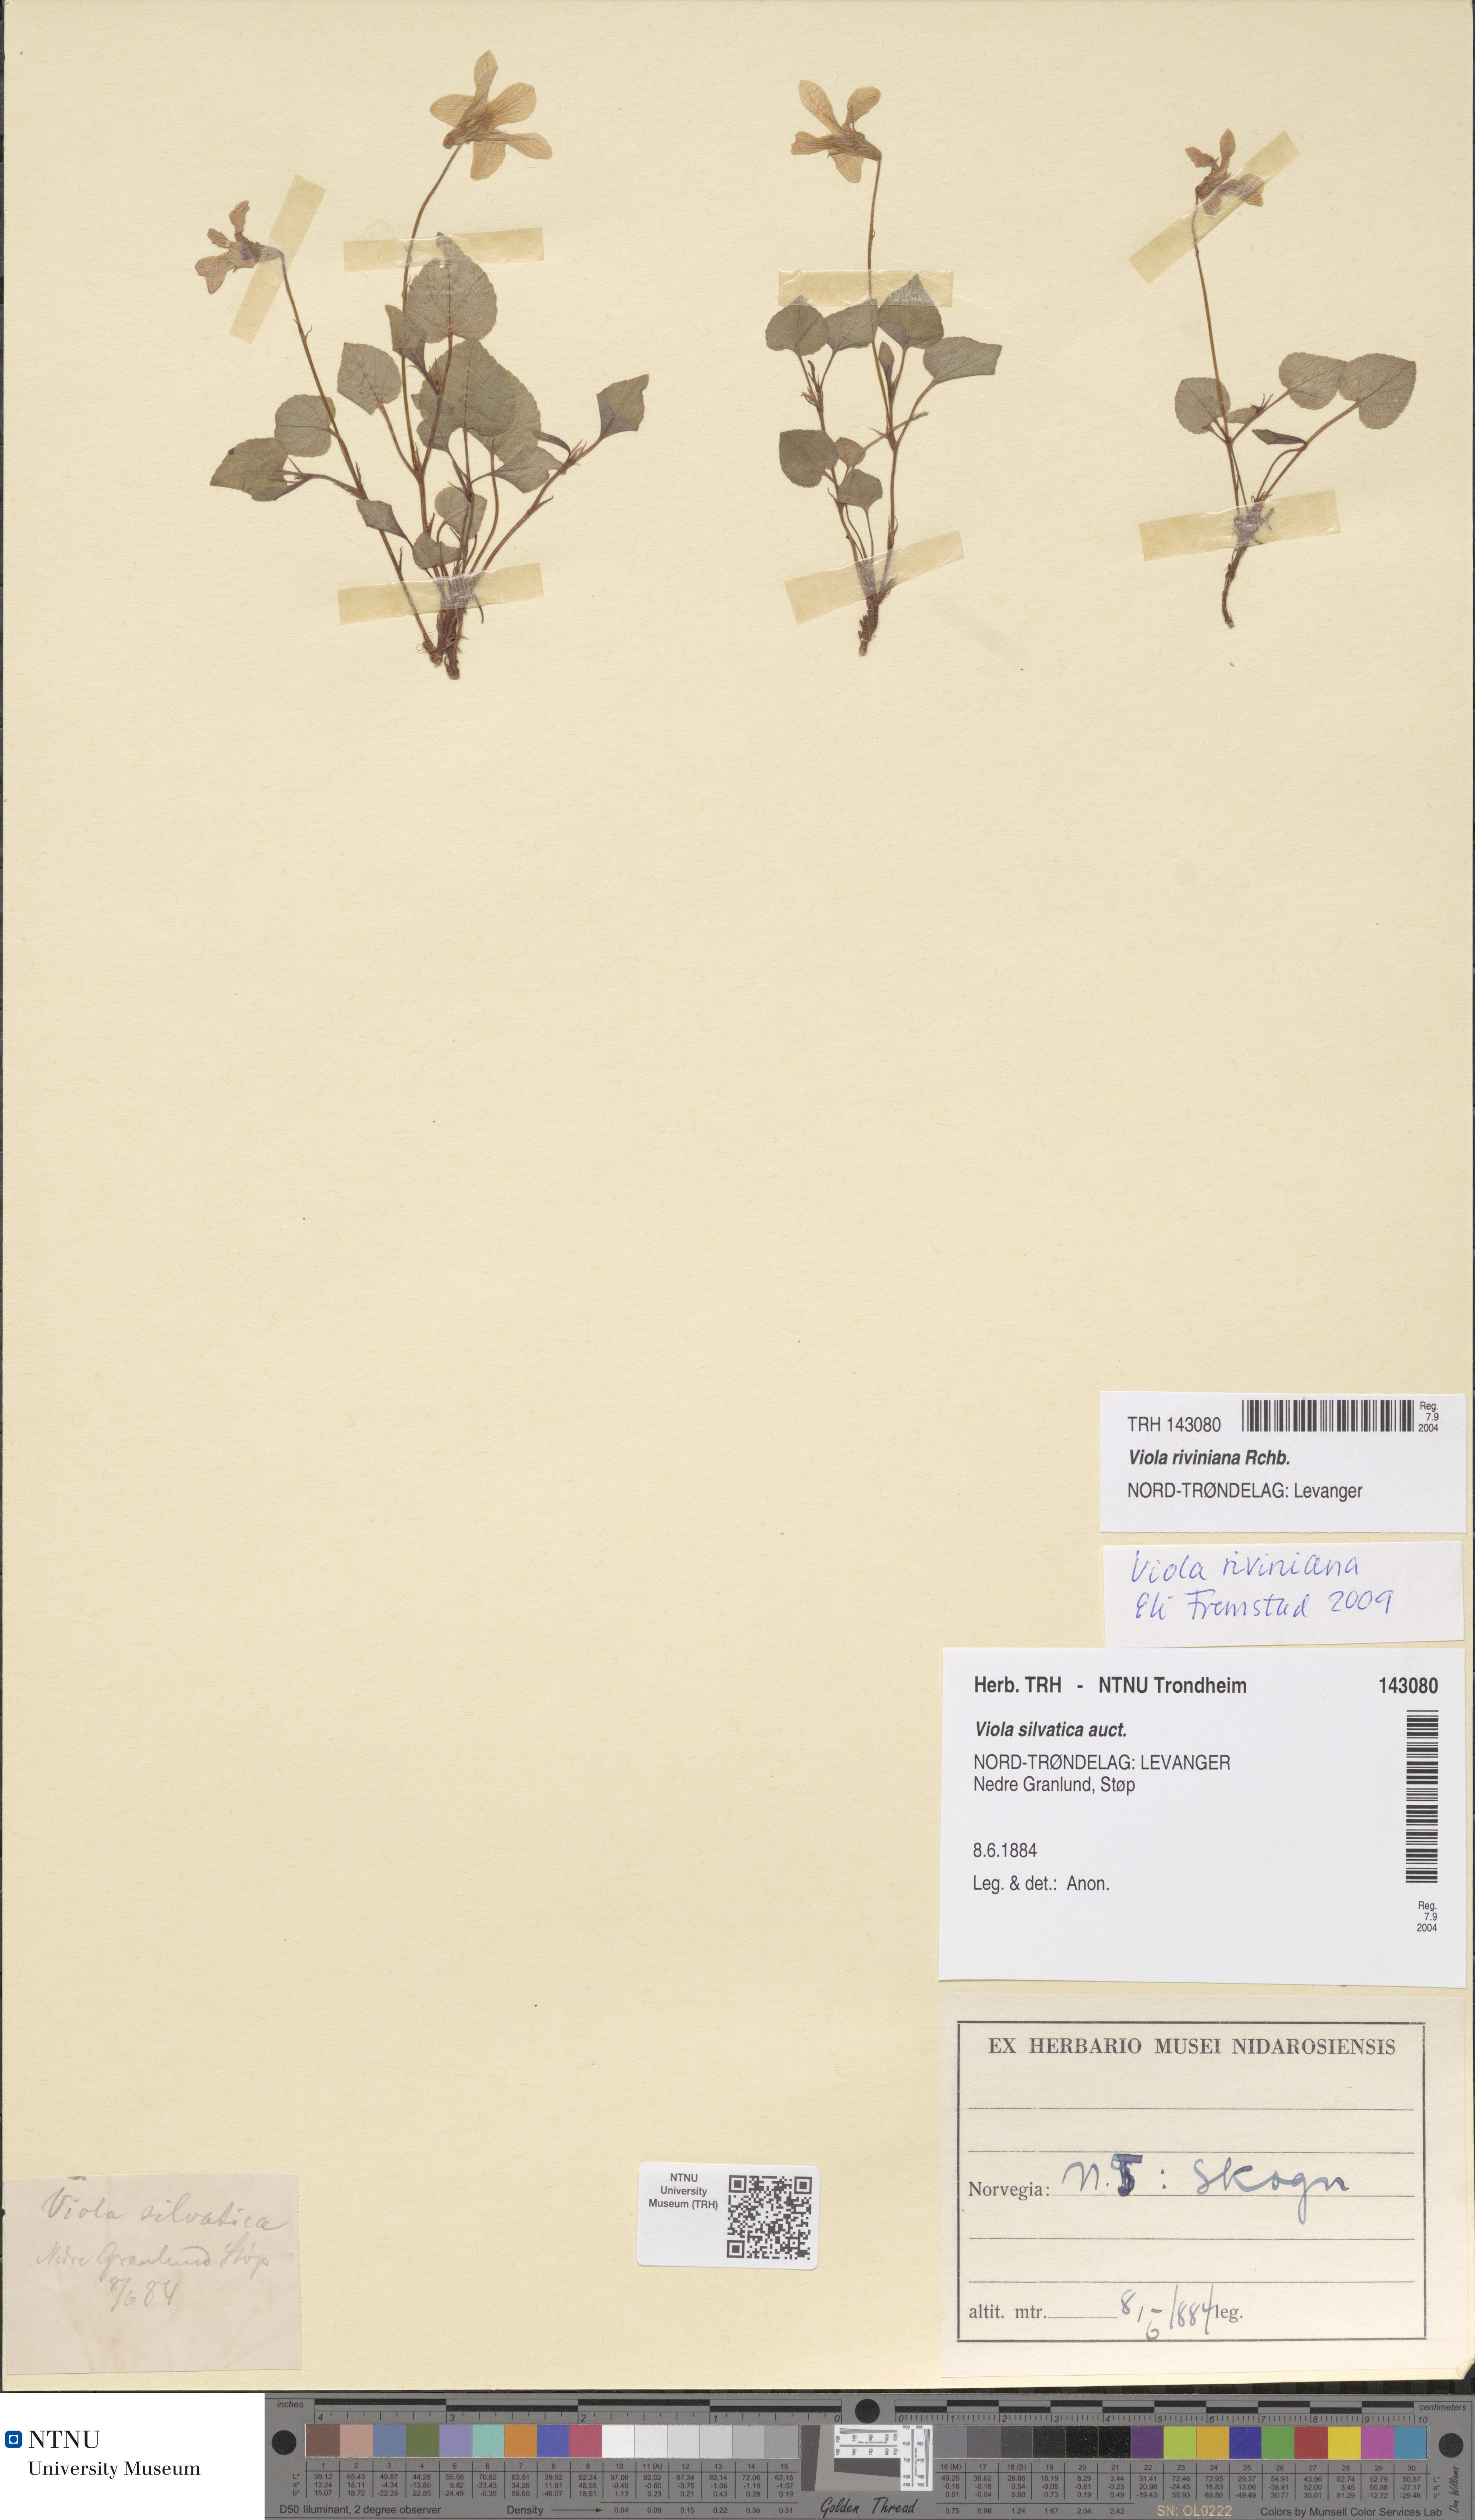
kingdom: Plantae
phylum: Tracheophyta
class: Magnoliopsida
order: Malpighiales
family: Violaceae
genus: Viola
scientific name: Viola riviniana
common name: Common dog-violet
